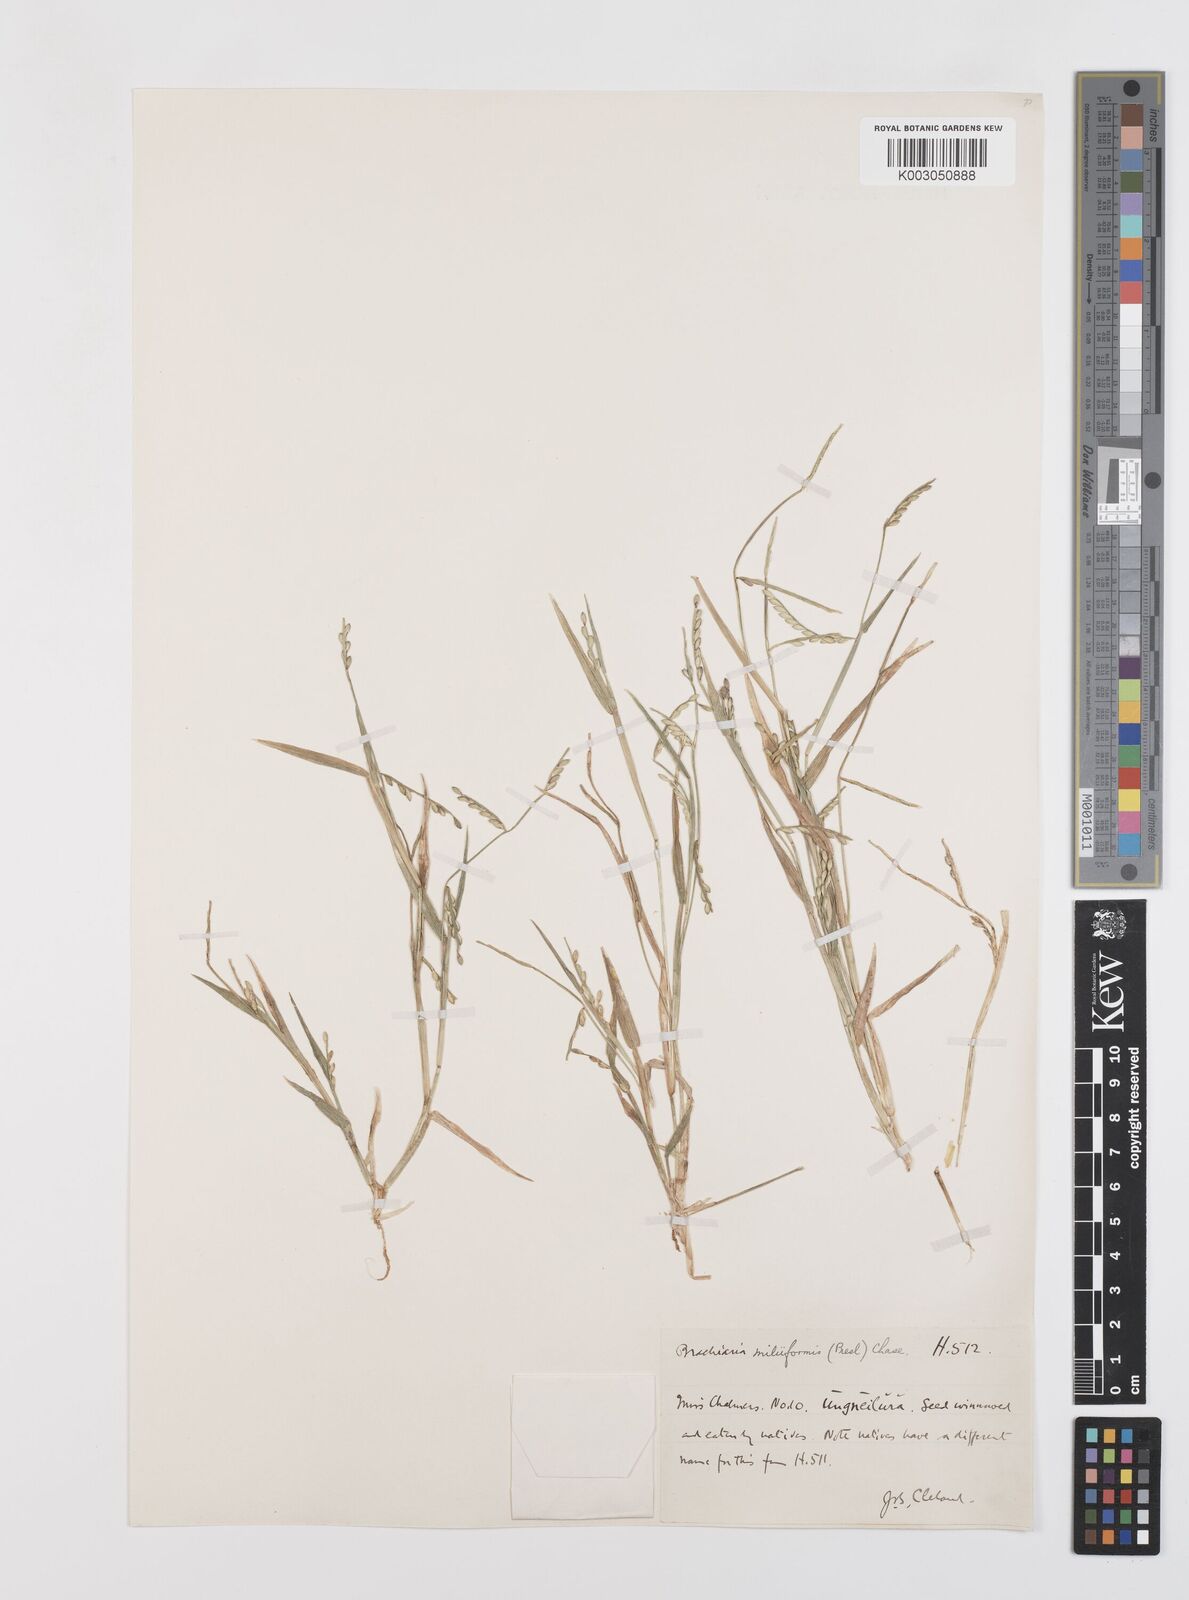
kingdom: Plantae
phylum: Tracheophyta
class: Liliopsida
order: Poales
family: Poaceae
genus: Urochloa
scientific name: Urochloa subquadripara
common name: Armgrass millet
